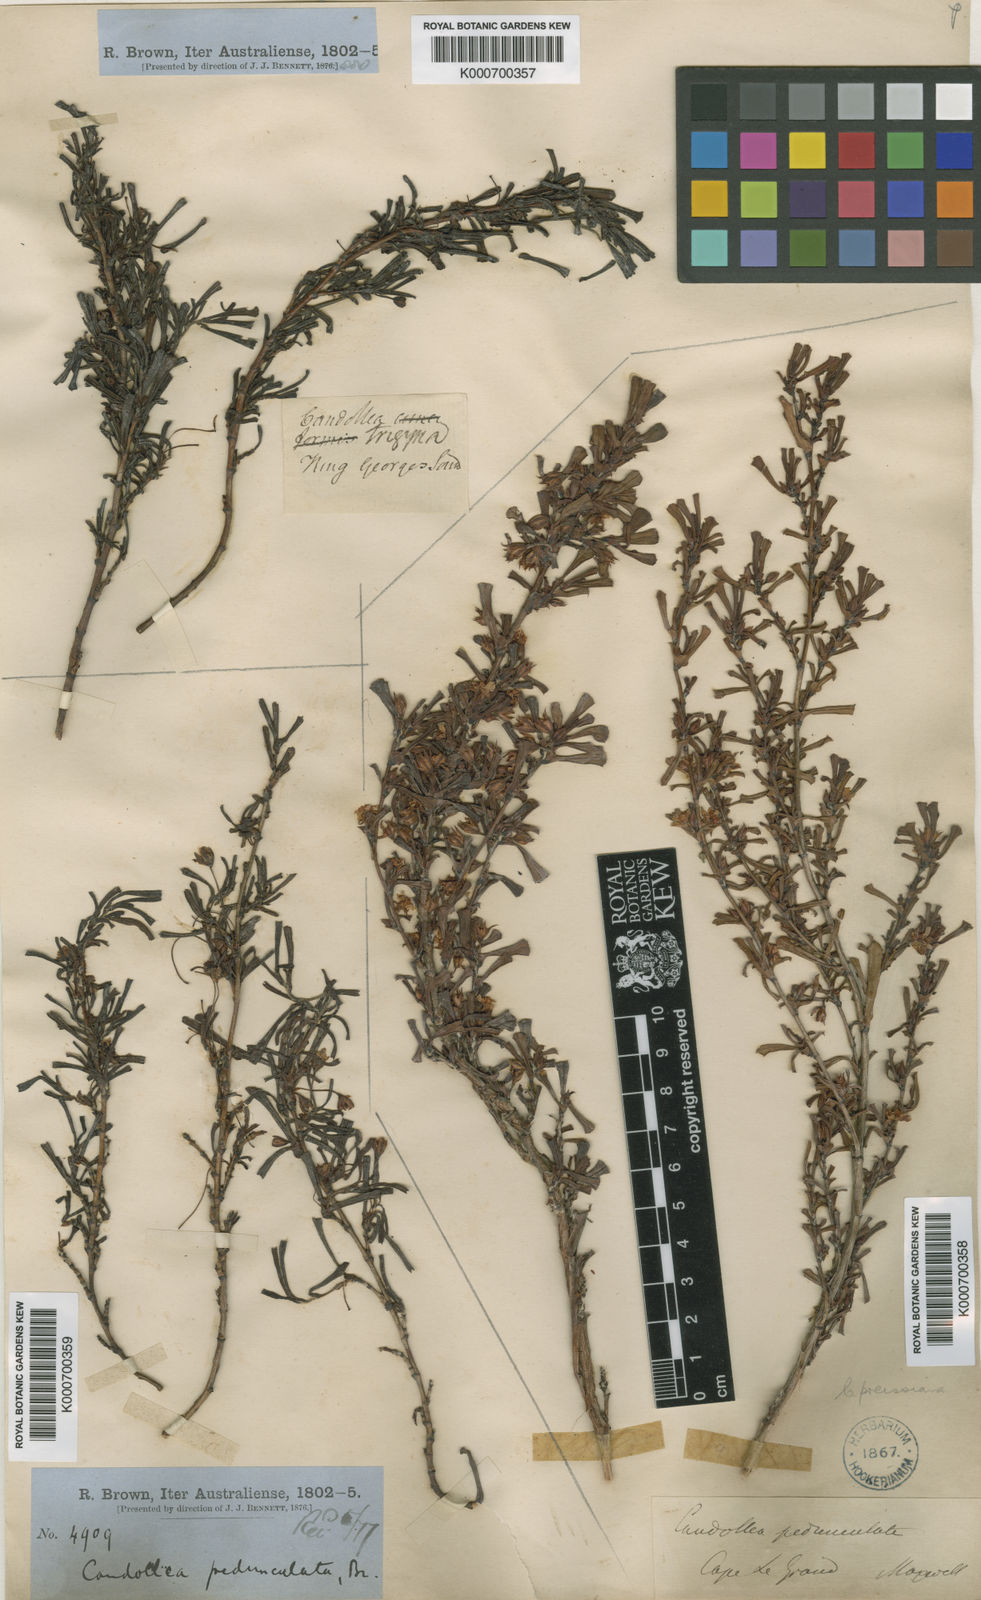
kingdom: Plantae
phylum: Tracheophyta
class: Magnoliopsida
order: Dilleniales
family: Dilleniaceae
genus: Hibbertia
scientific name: Hibbertia pedunculata
